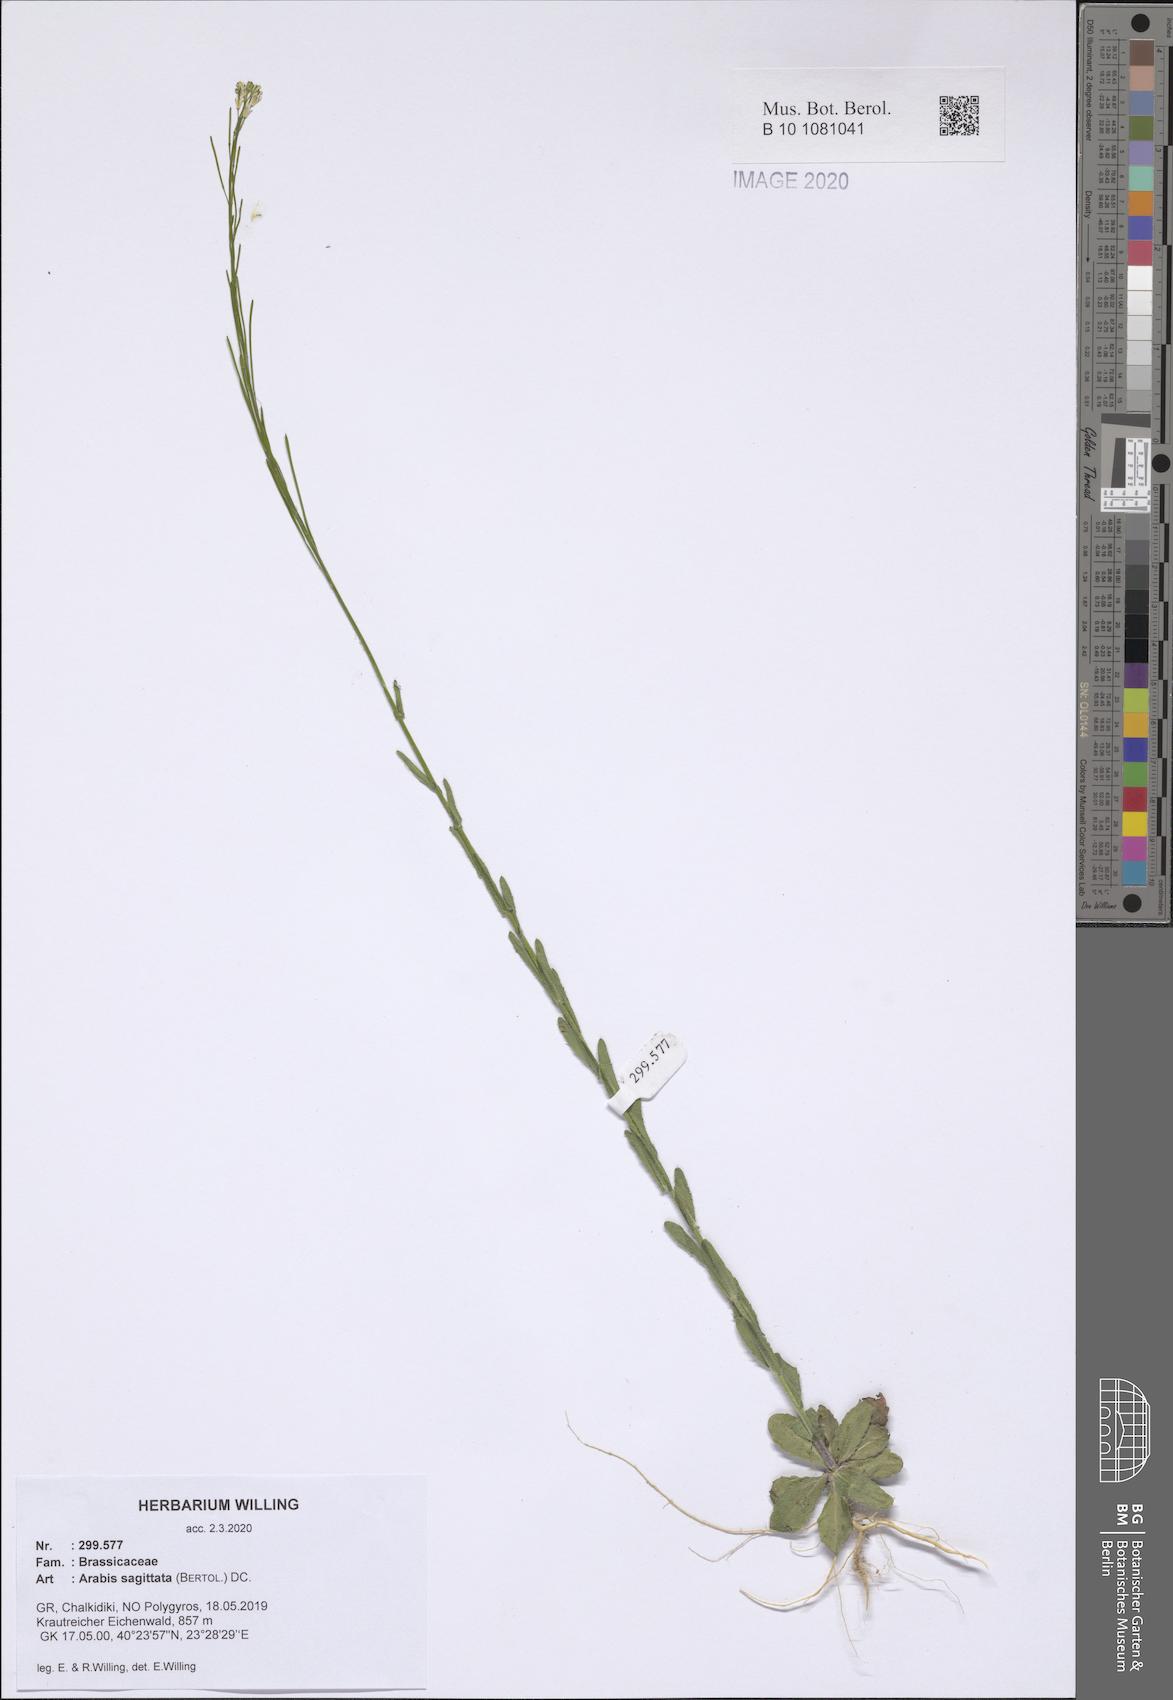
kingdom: Plantae
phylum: Tracheophyta
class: Magnoliopsida
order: Brassicales
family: Brassicaceae
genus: Arabis
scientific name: Arabis sagittata
